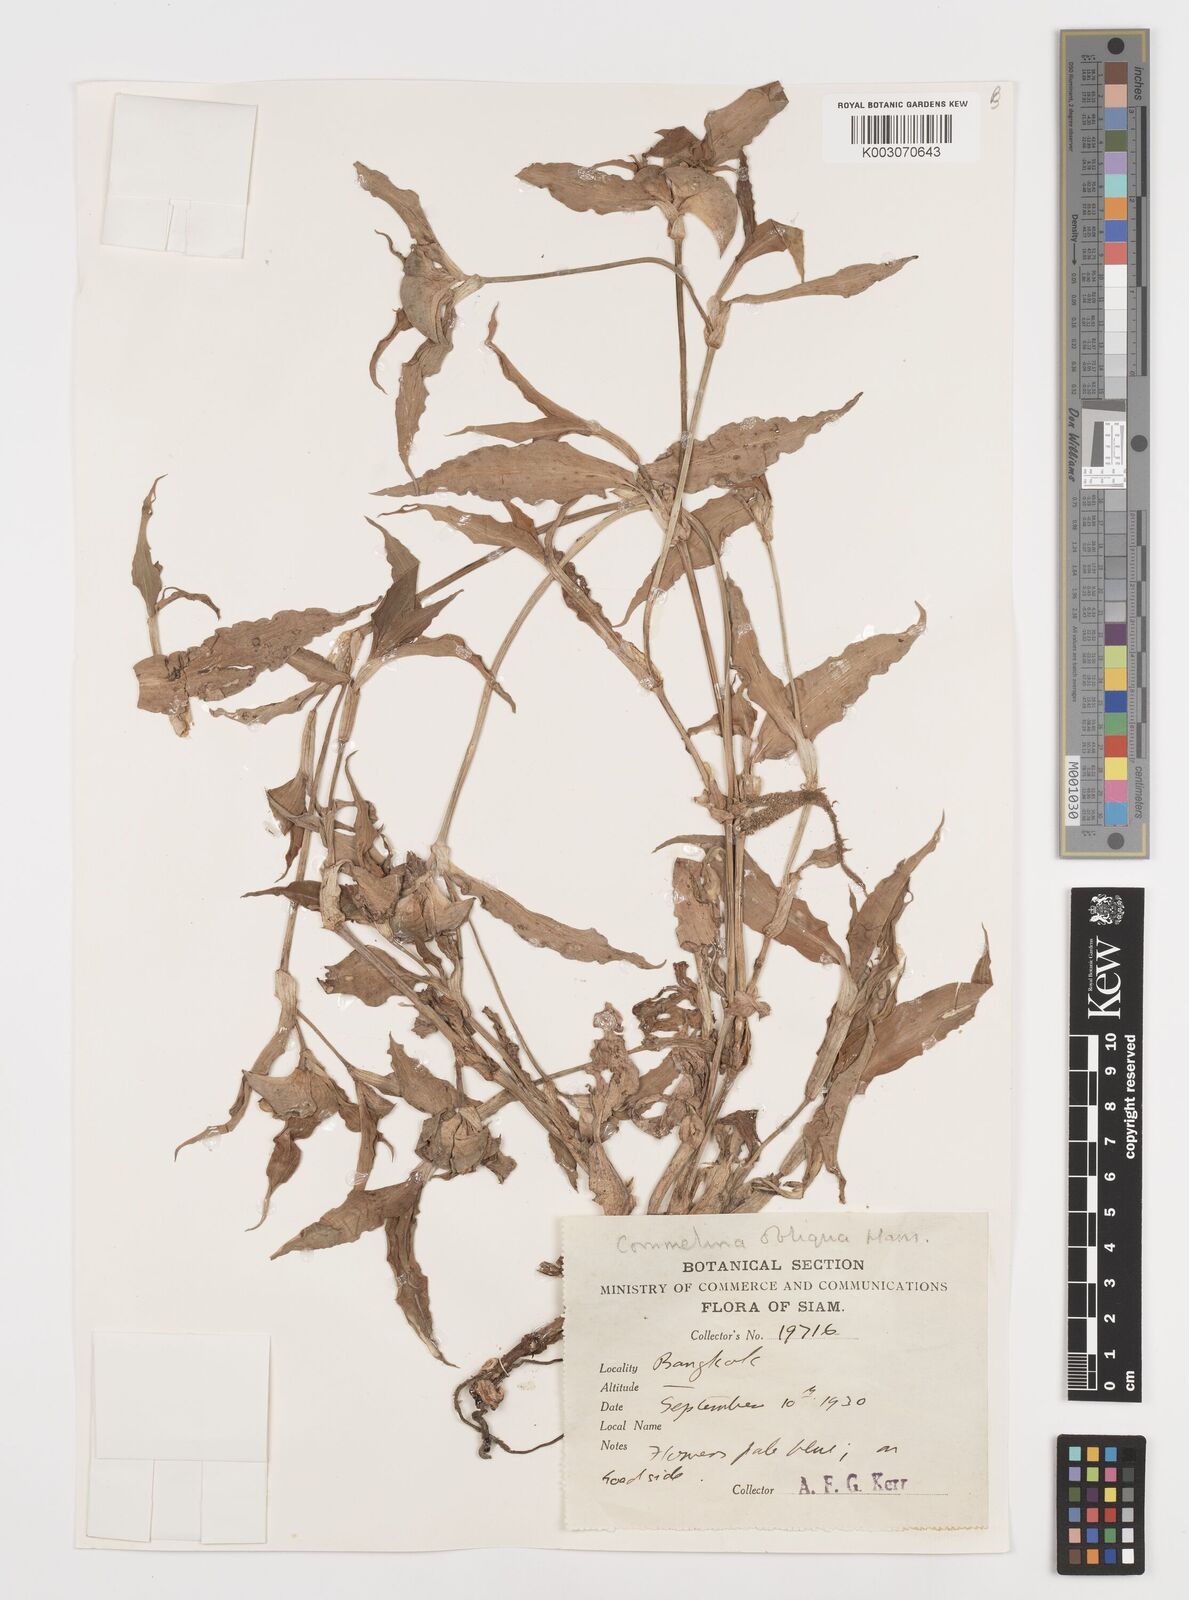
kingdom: Plantae
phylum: Tracheophyta
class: Liliopsida
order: Commelinales
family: Commelinaceae
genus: Commelina
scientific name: Commelina
